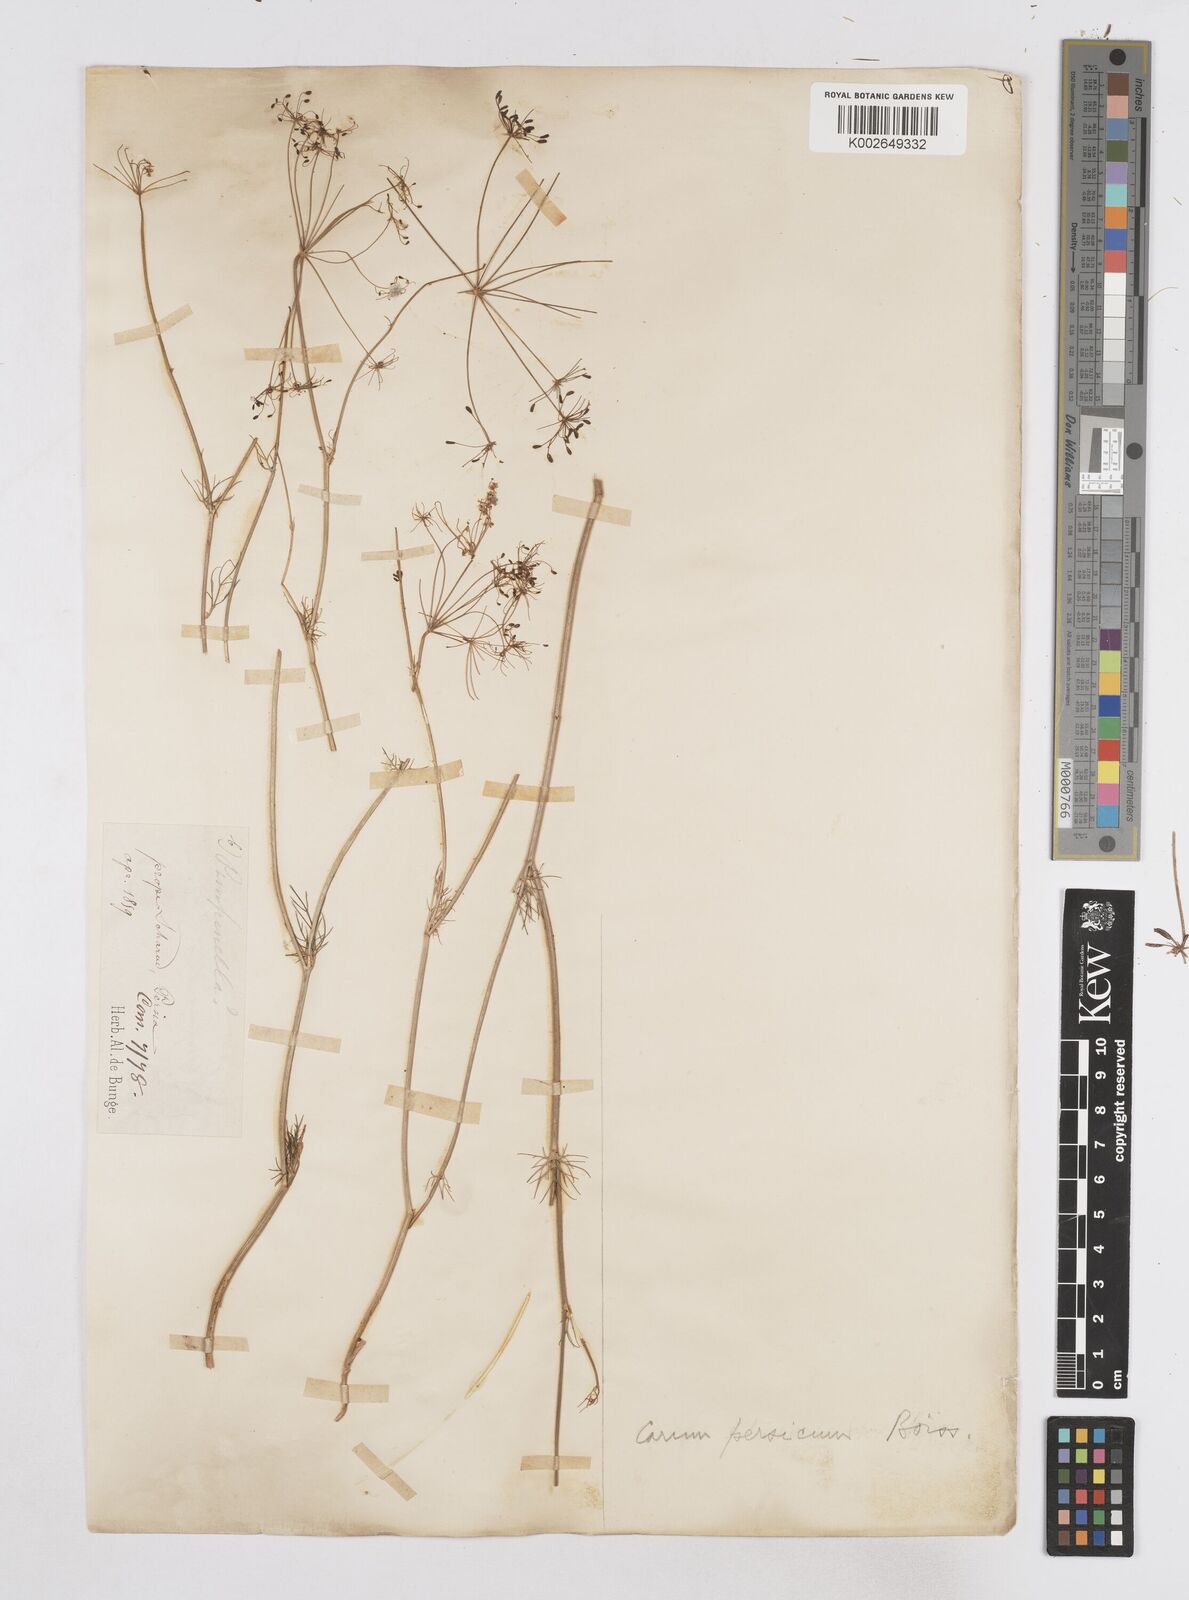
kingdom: Plantae
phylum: Tracheophyta
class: Magnoliopsida
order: Apiales
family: Apiaceae
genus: Elwendia
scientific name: Elwendia persica
